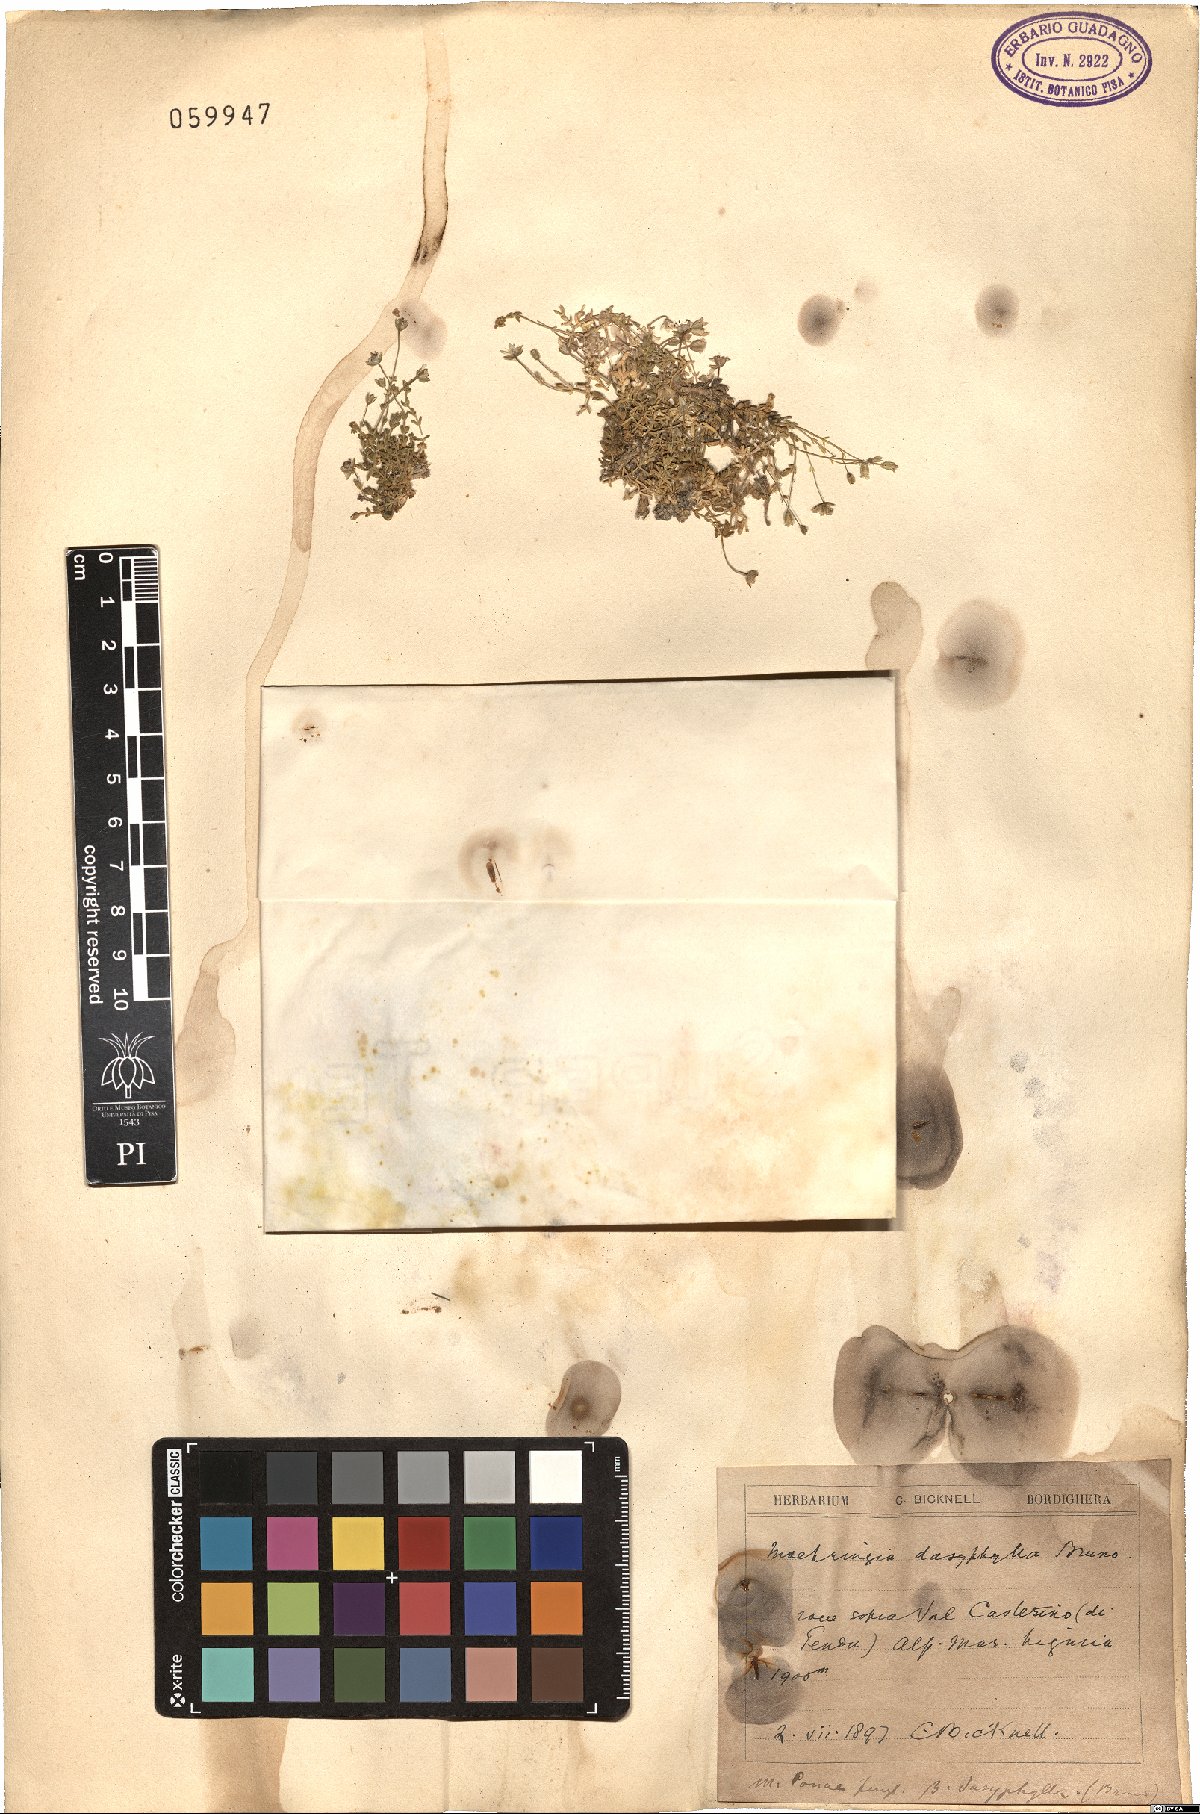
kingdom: Plantae
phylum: Tracheophyta
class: Magnoliopsida
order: Caryophyllales
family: Caryophyllaceae
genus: Moehringia
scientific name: Moehringia sedoides
